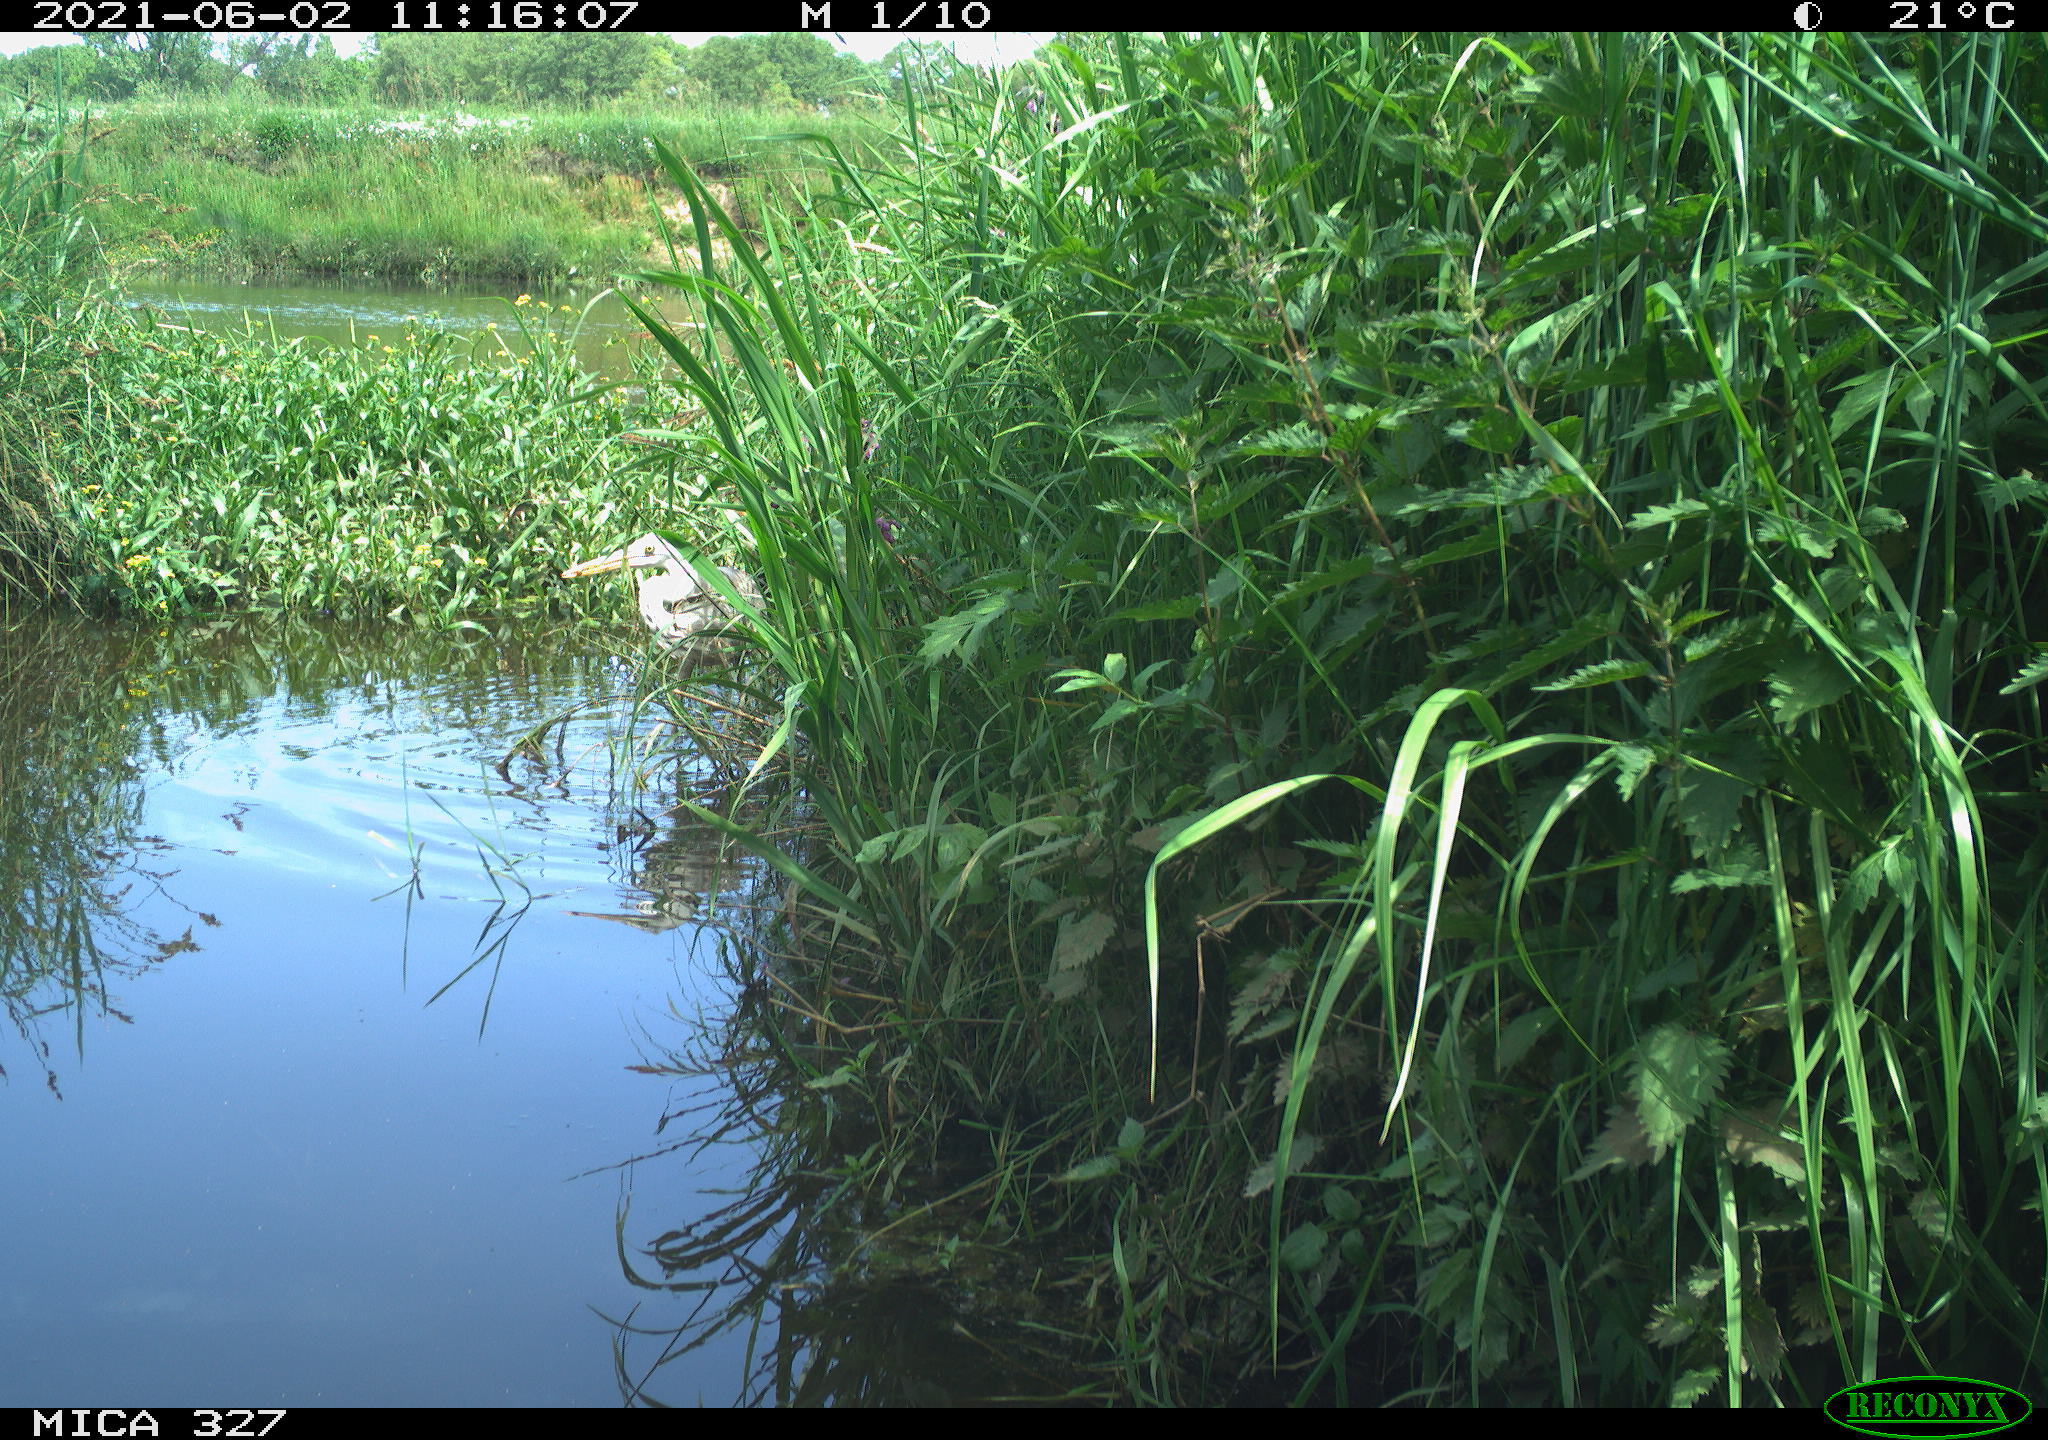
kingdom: Animalia
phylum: Chordata
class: Aves
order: Pelecaniformes
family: Ardeidae
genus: Ardea
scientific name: Ardea cinerea
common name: Grey heron
